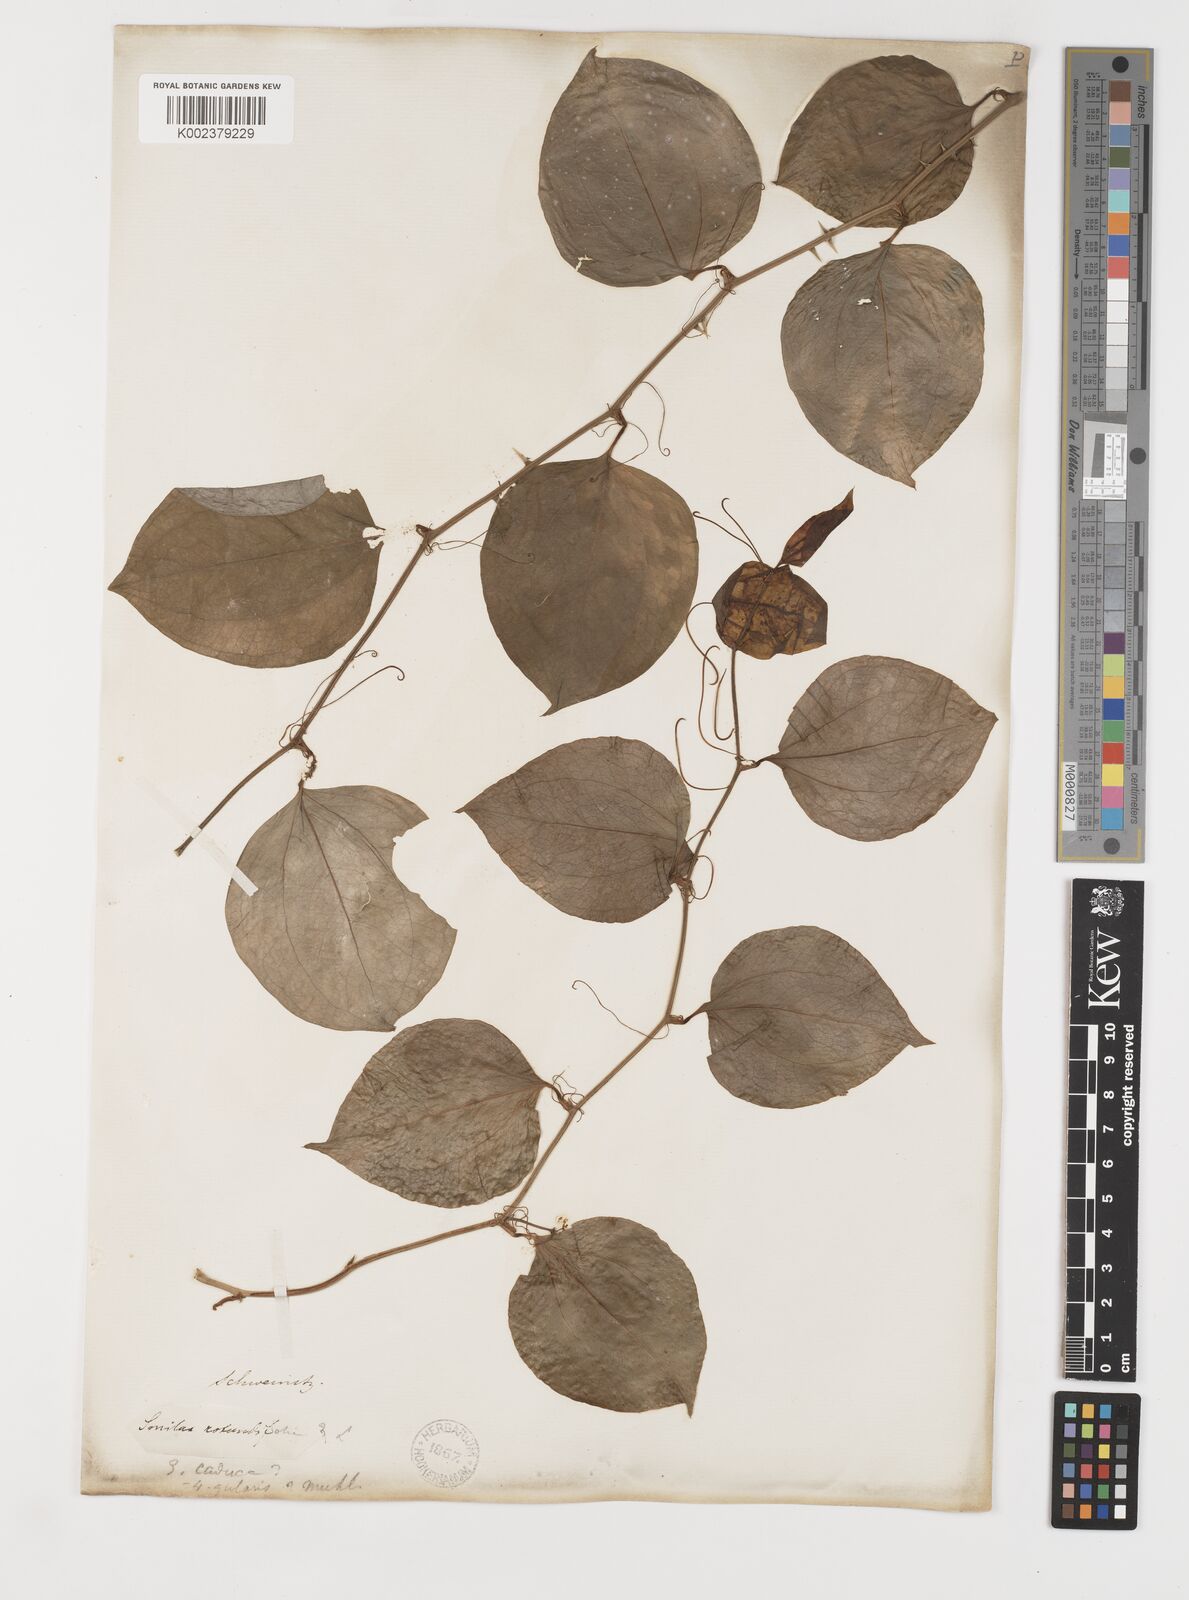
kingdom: Plantae
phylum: Tracheophyta
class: Liliopsida
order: Liliales
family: Smilacaceae
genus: Smilax
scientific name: Smilax rotundifolia
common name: Bullbriar
